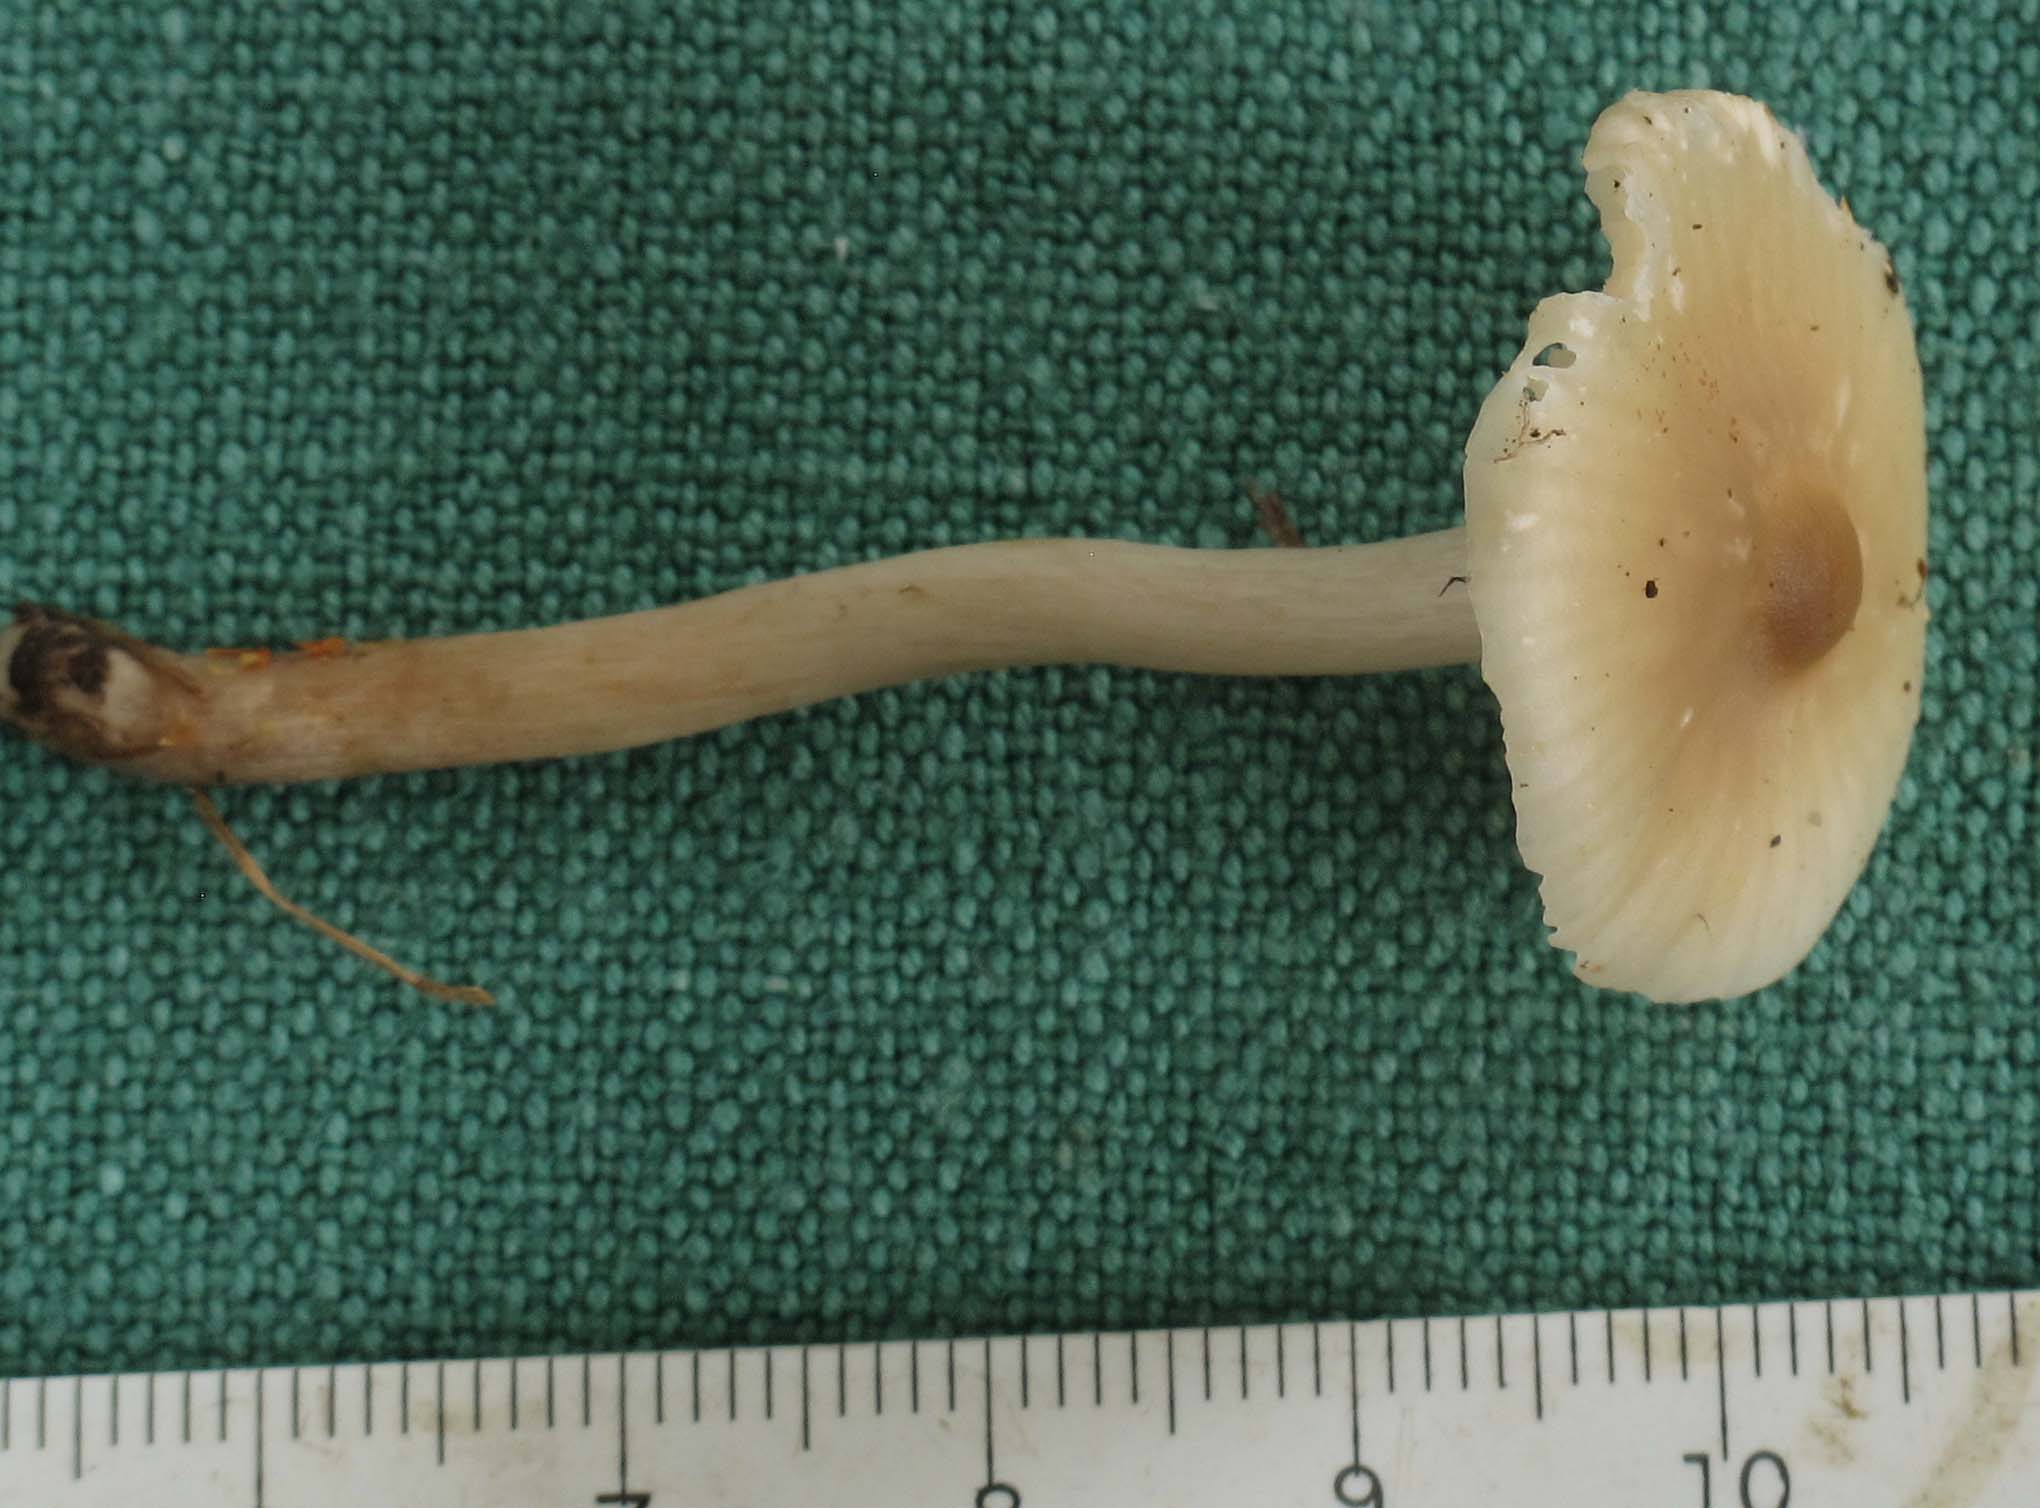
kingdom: Fungi
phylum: Basidiomycota
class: Agaricomycetes
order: Agaricales
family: Hygrophoraceae
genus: Cuphophyllus
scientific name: Cuphophyllus virgineus
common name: brunøjet vokshat
